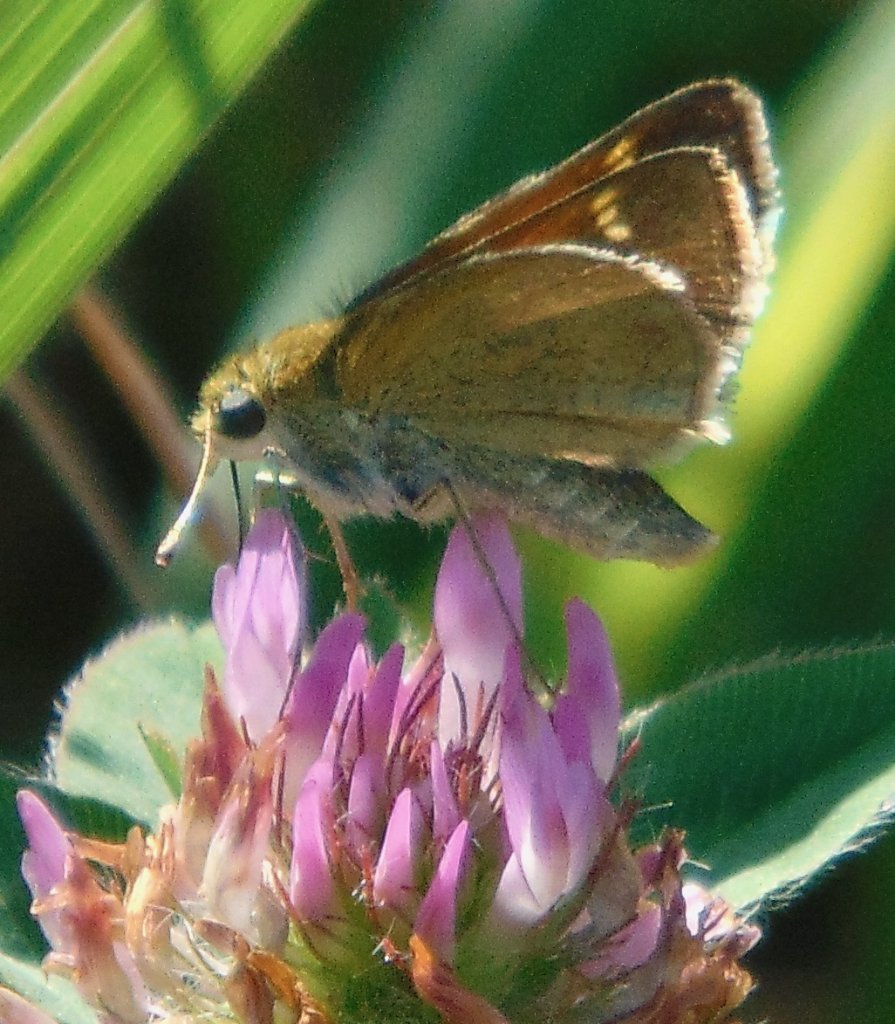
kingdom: Animalia
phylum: Arthropoda
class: Insecta
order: Lepidoptera
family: Hesperiidae
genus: Polites
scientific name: Polites themistocles
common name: Tawny-edged Skipper
